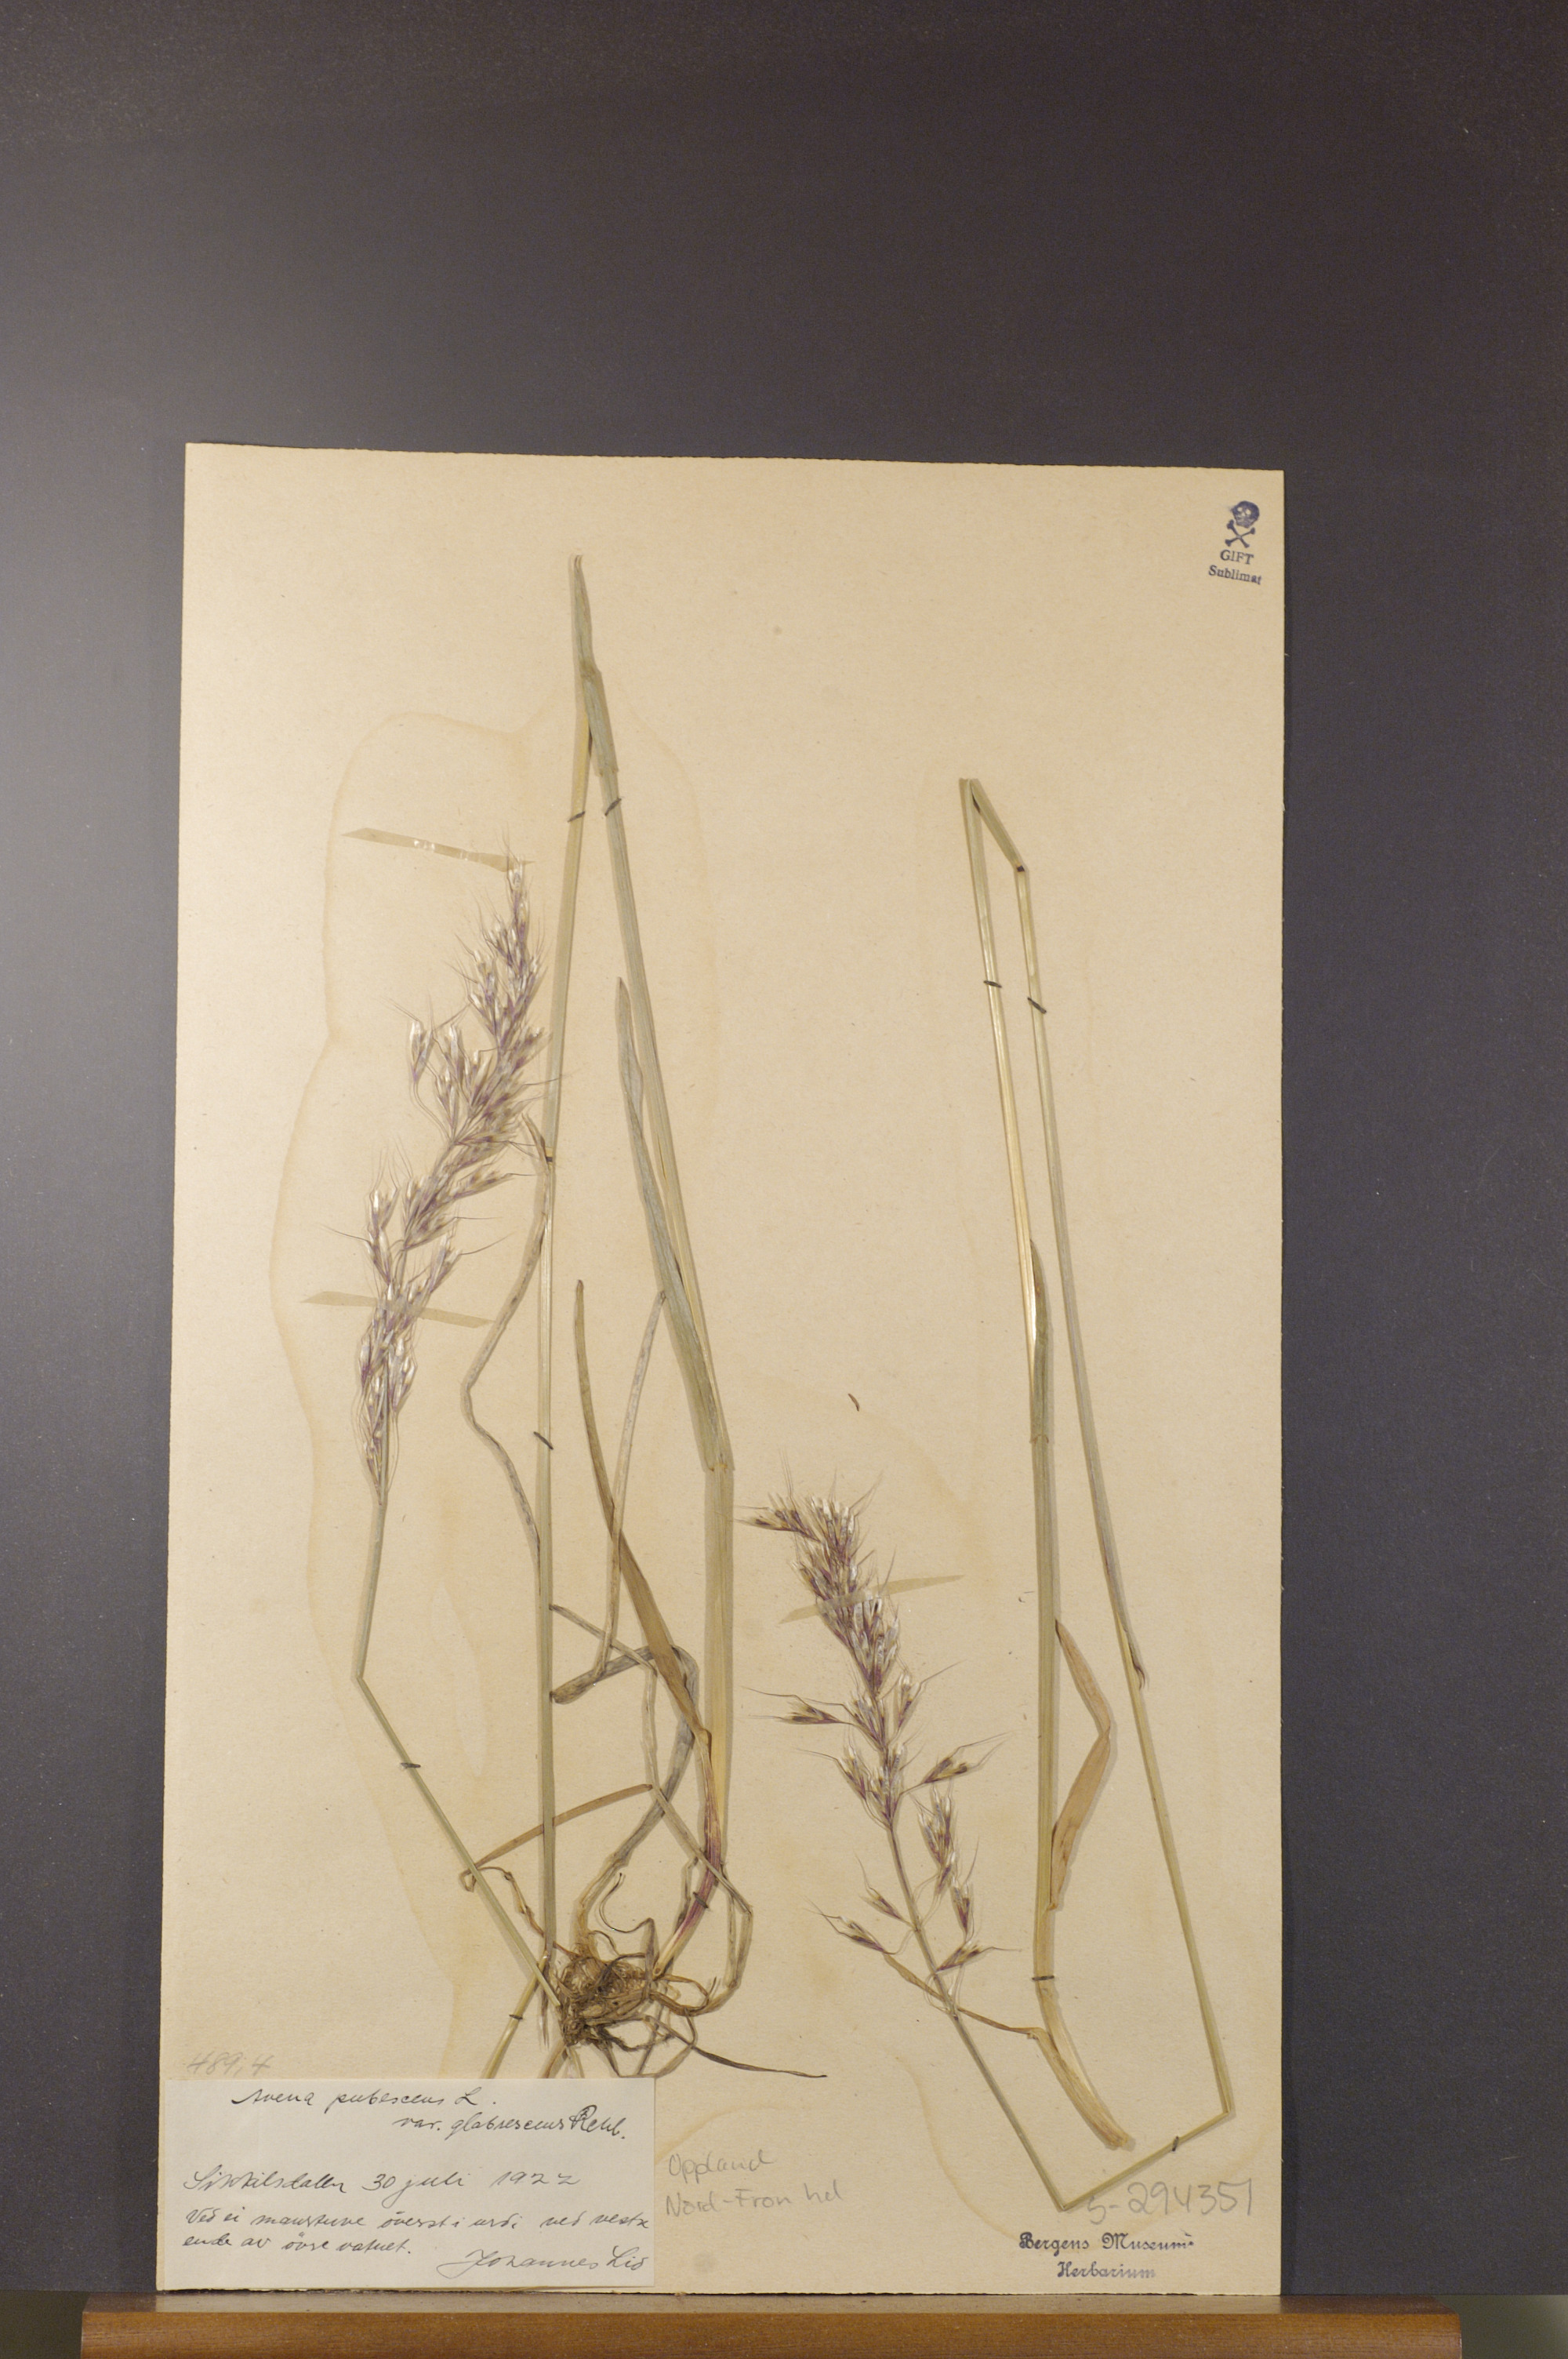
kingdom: Plantae
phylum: Tracheophyta
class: Liliopsida
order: Poales
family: Poaceae
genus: Avenula
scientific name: Avenula pubescens
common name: Downy alpine oatgrass
